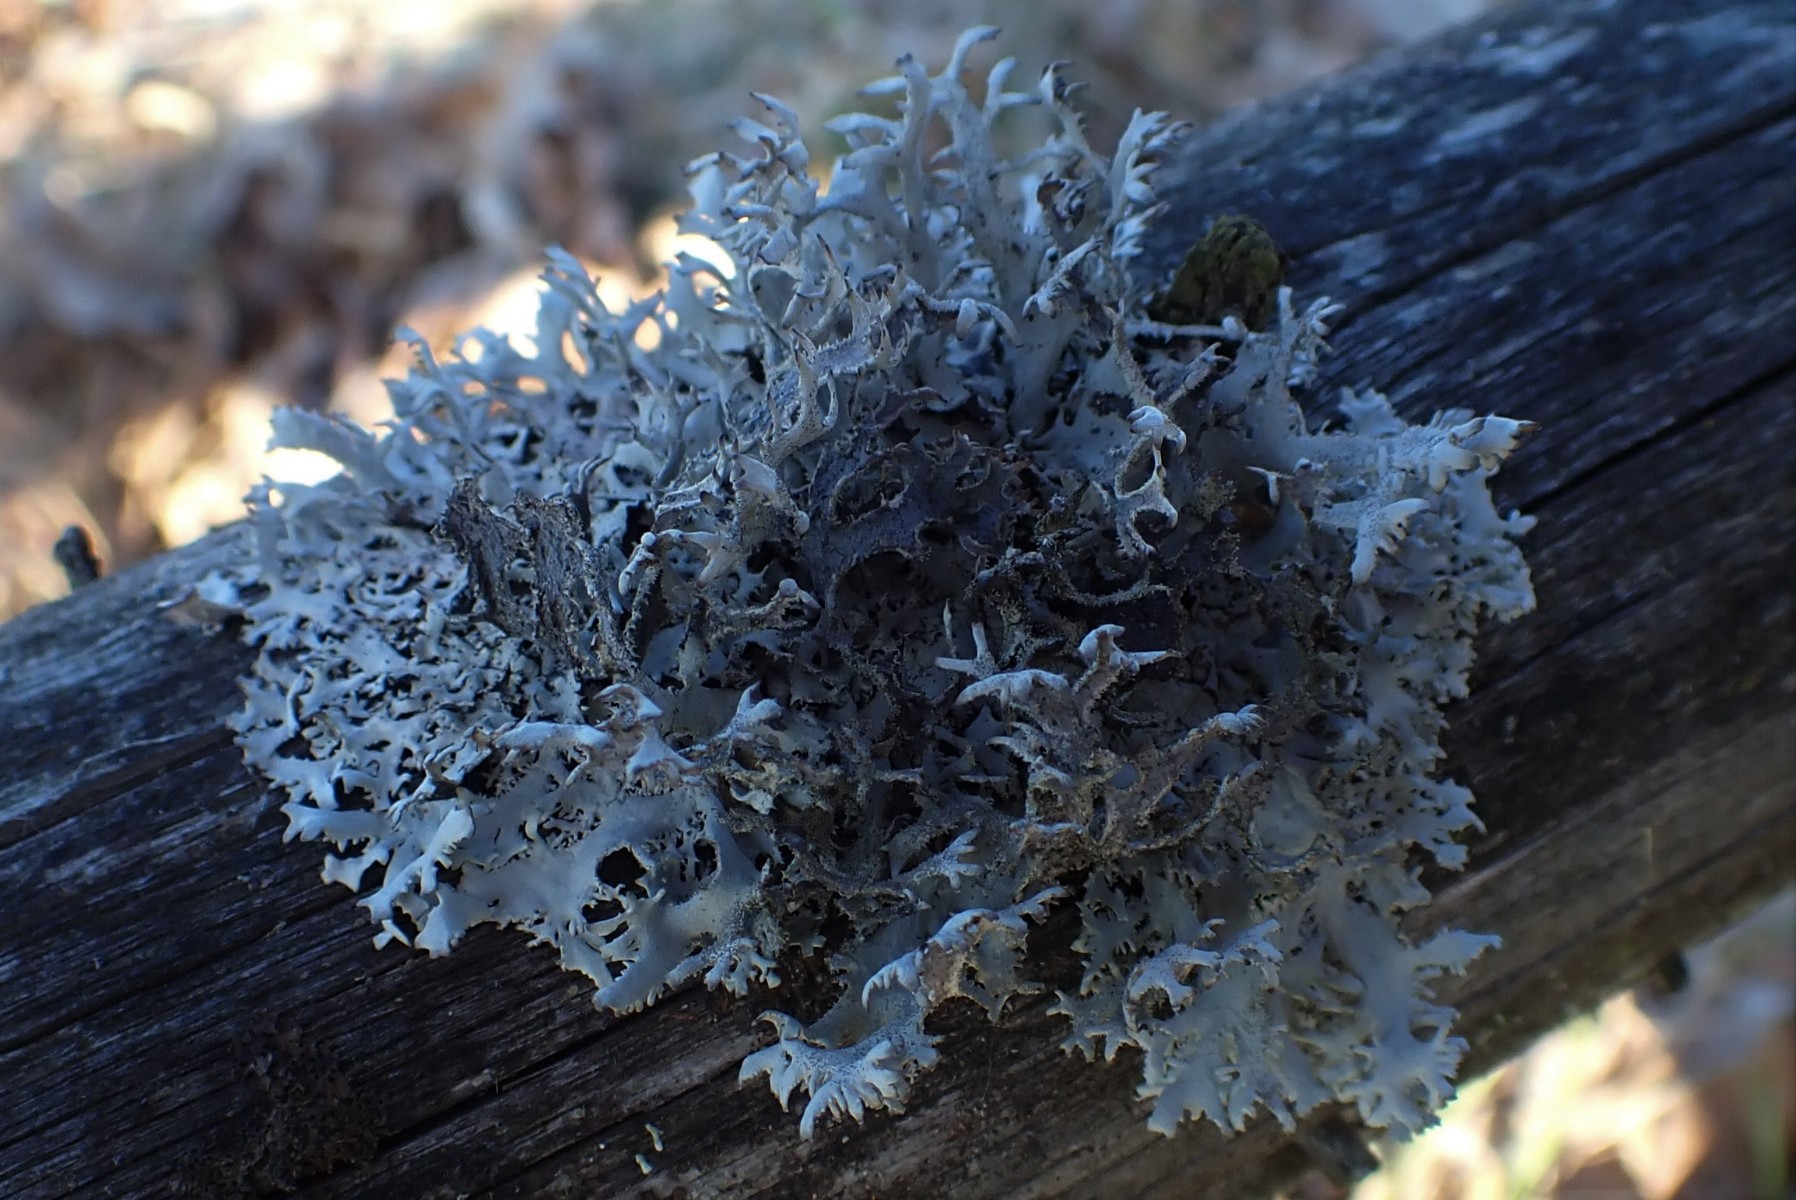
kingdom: Fungi
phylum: Ascomycota
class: Lecanoromycetes
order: Lecanorales
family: Parmeliaceae
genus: Pseudevernia
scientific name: Pseudevernia furfuracea
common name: grå fyrrelav
